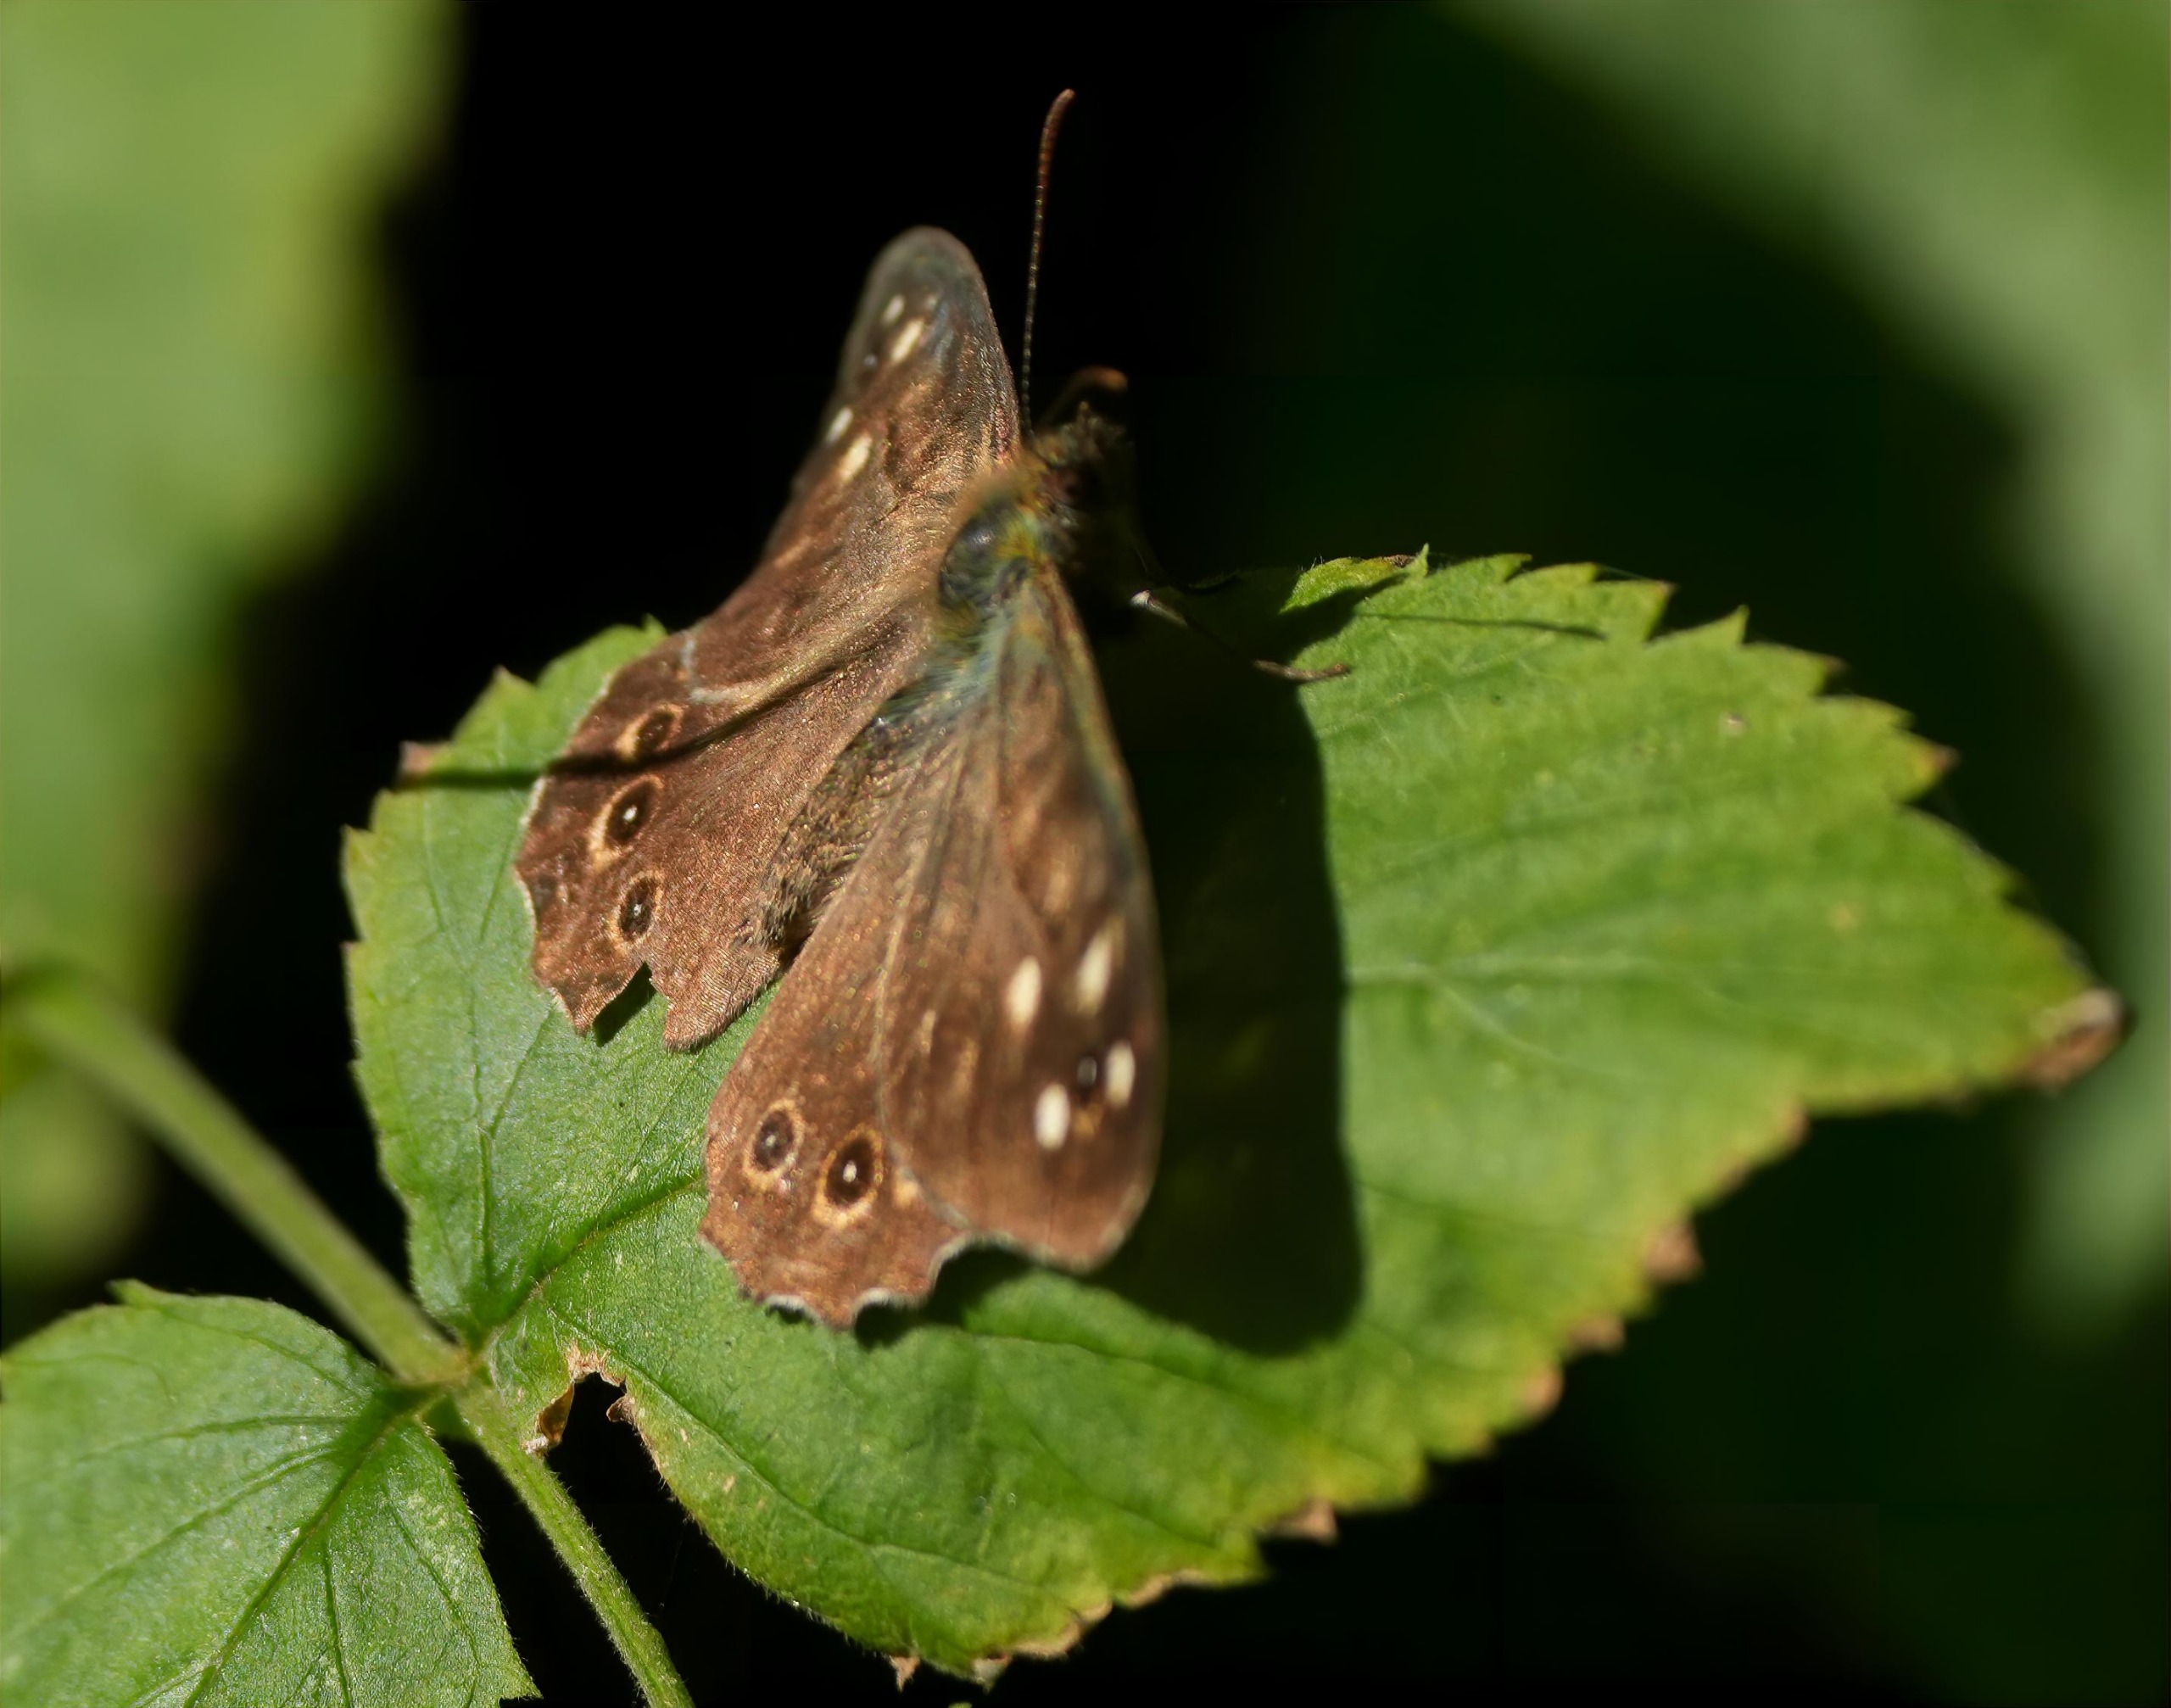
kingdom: Animalia
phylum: Arthropoda
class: Insecta
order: Lepidoptera
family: Nymphalidae
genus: Pararge
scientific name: Pararge aegeria
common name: Skovrandøje
